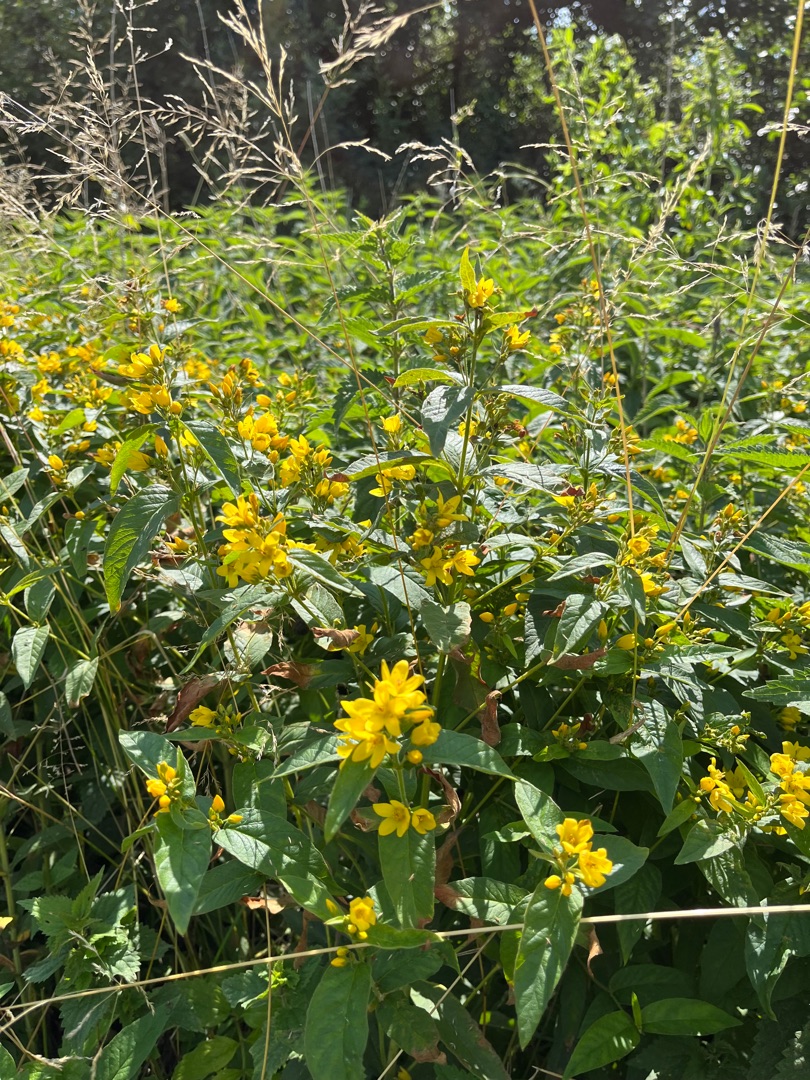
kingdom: Plantae
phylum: Tracheophyta
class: Magnoliopsida
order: Ericales
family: Primulaceae
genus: Lysimachia
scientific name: Lysimachia vulgaris
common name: Almindelig fredløs
